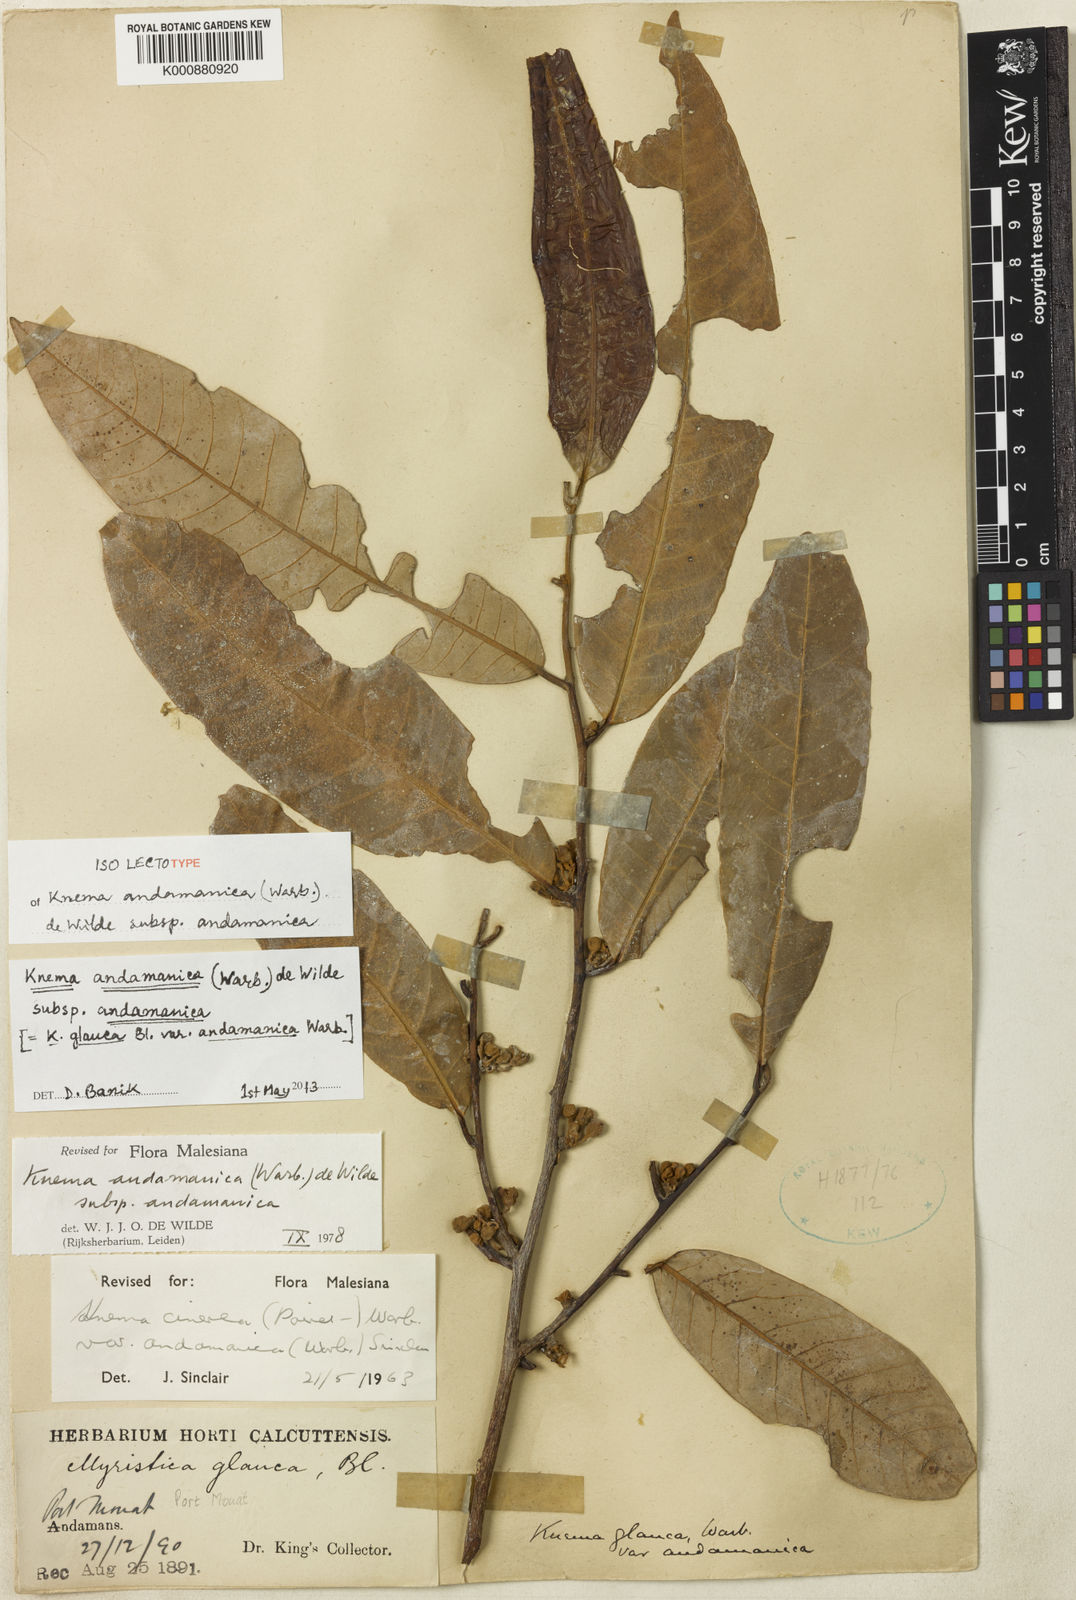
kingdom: Plantae
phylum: Tracheophyta
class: Magnoliopsida
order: Magnoliales
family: Myristicaceae
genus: Knema
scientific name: Knema andamanica
